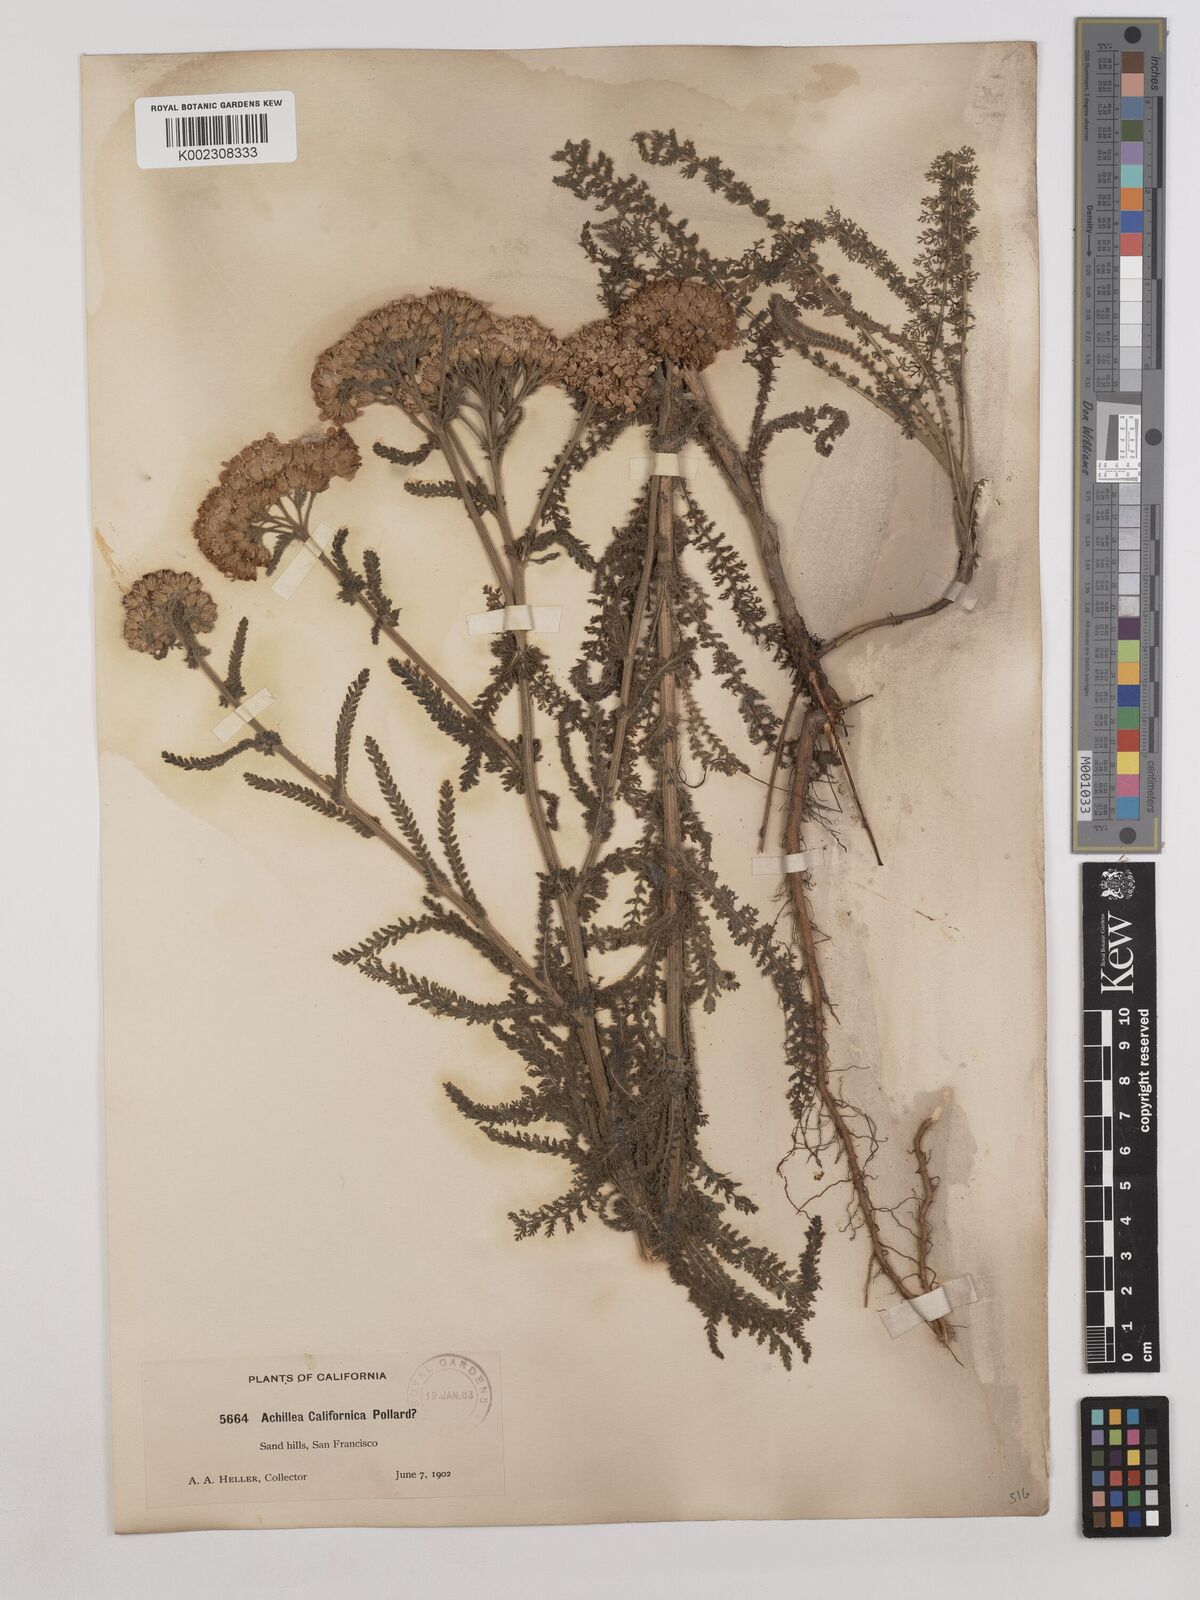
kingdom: Plantae
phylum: Tracheophyta
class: Magnoliopsida
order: Asterales
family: Asteraceae
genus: Achillea
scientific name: Achillea millefolium
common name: Yarrow
